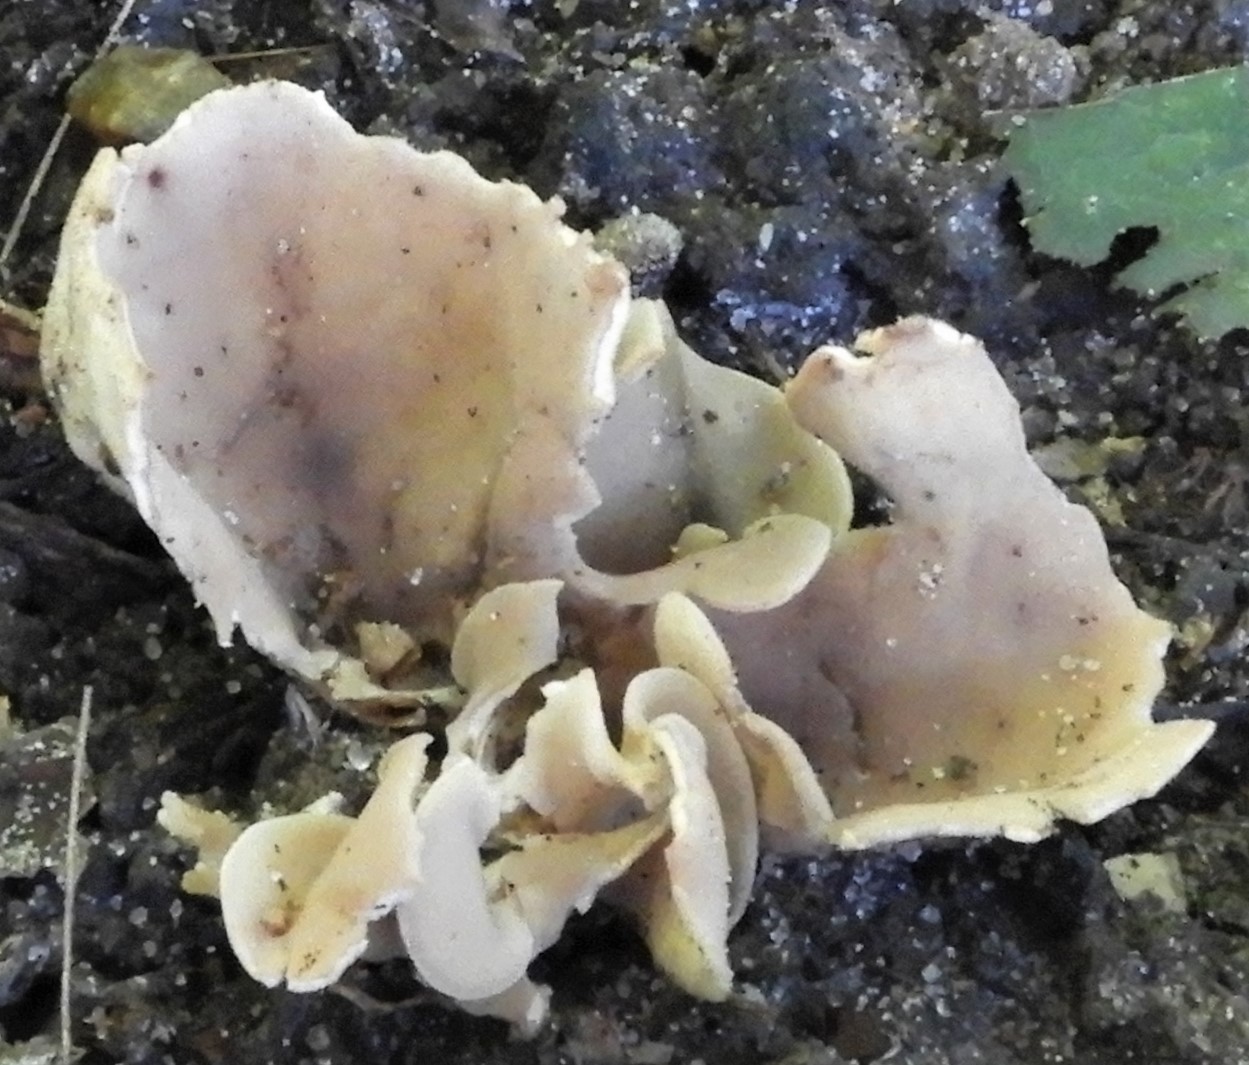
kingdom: Fungi
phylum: Ascomycota
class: Pezizomycetes
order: Pezizales
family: Pezizaceae
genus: Peziza
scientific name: Peziza
